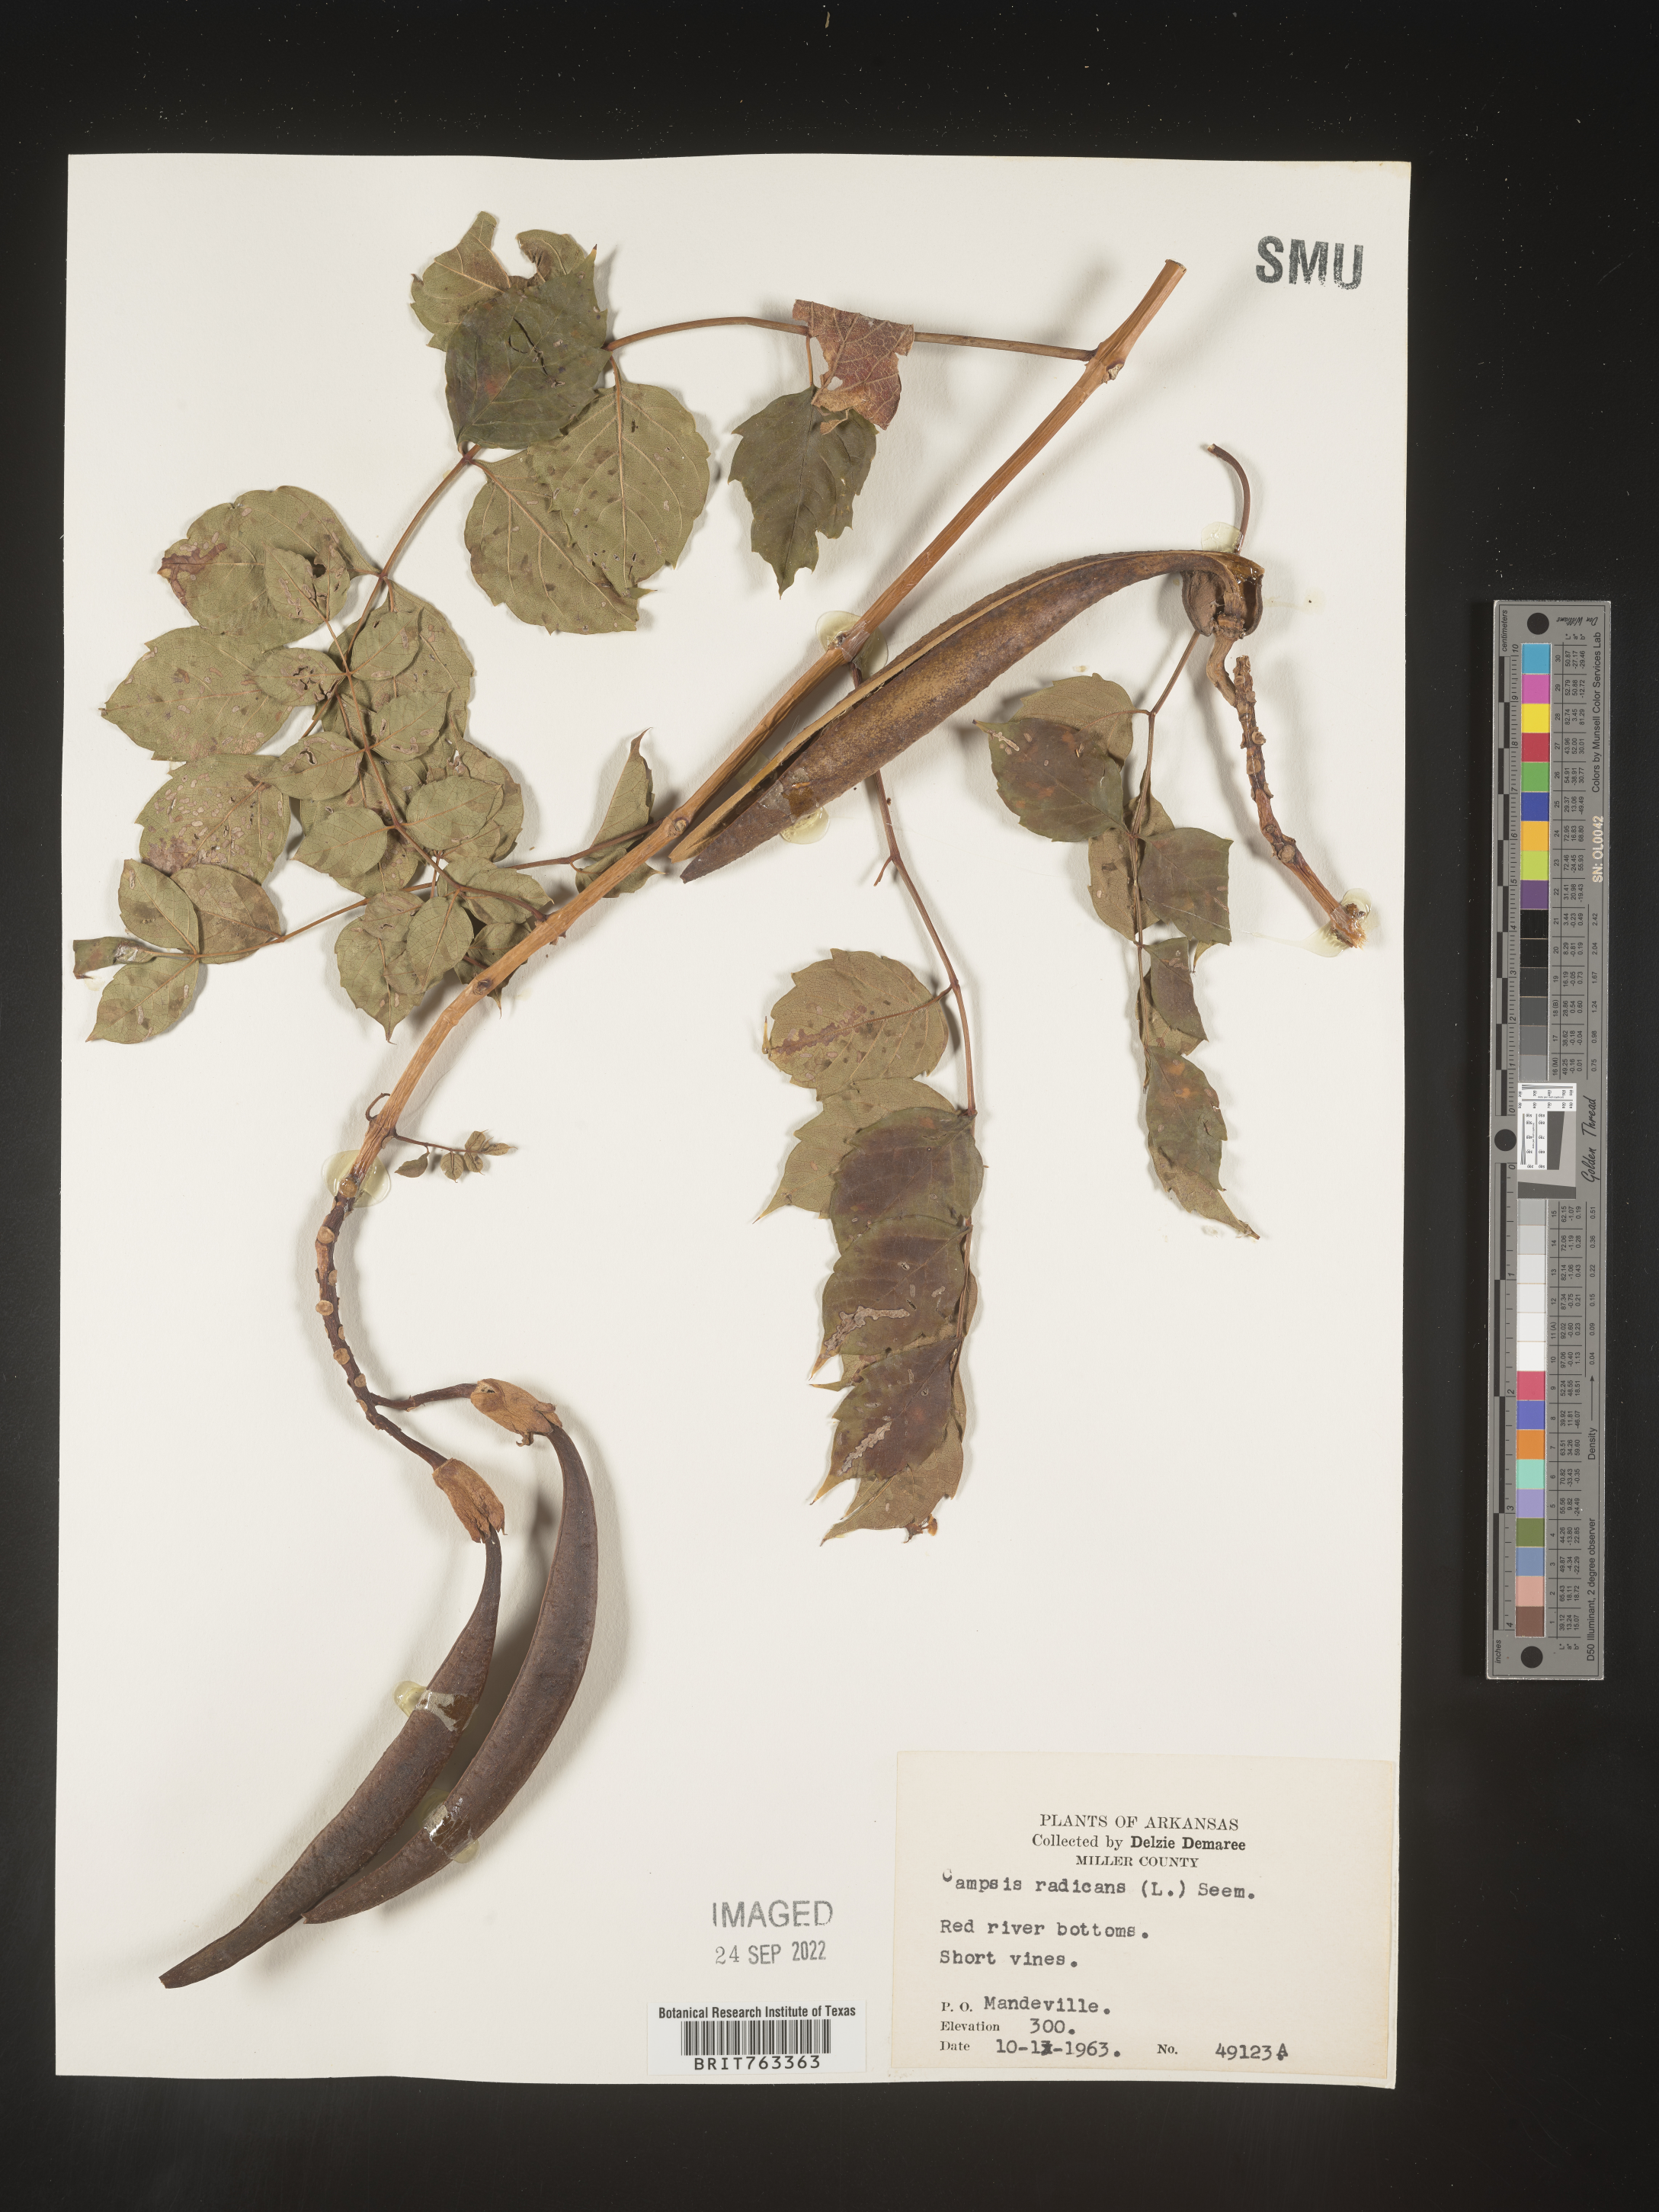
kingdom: Plantae
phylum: Tracheophyta
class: Magnoliopsida
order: Lamiales
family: Bignoniaceae
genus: Campsis
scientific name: Campsis radicans
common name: Trumpet-creeper
